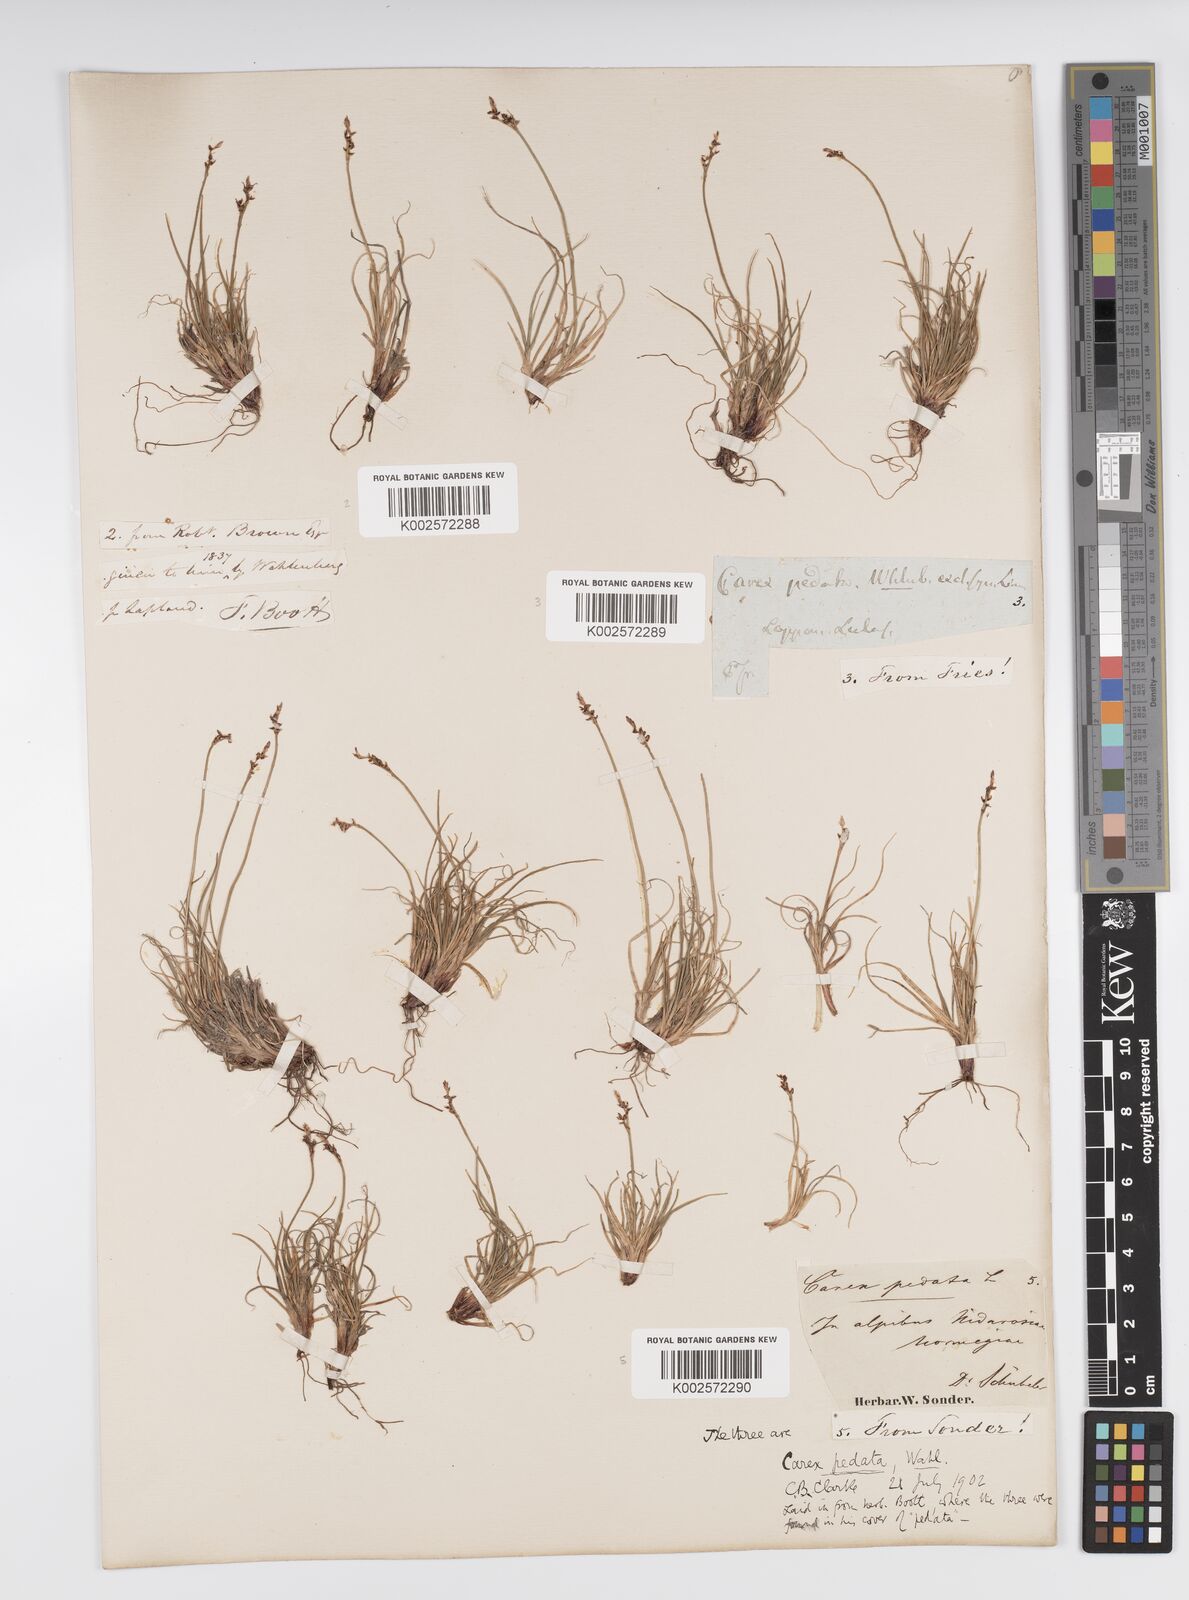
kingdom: Plantae
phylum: Tracheophyta
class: Liliopsida
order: Poales
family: Cyperaceae
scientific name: Cyperaceae
